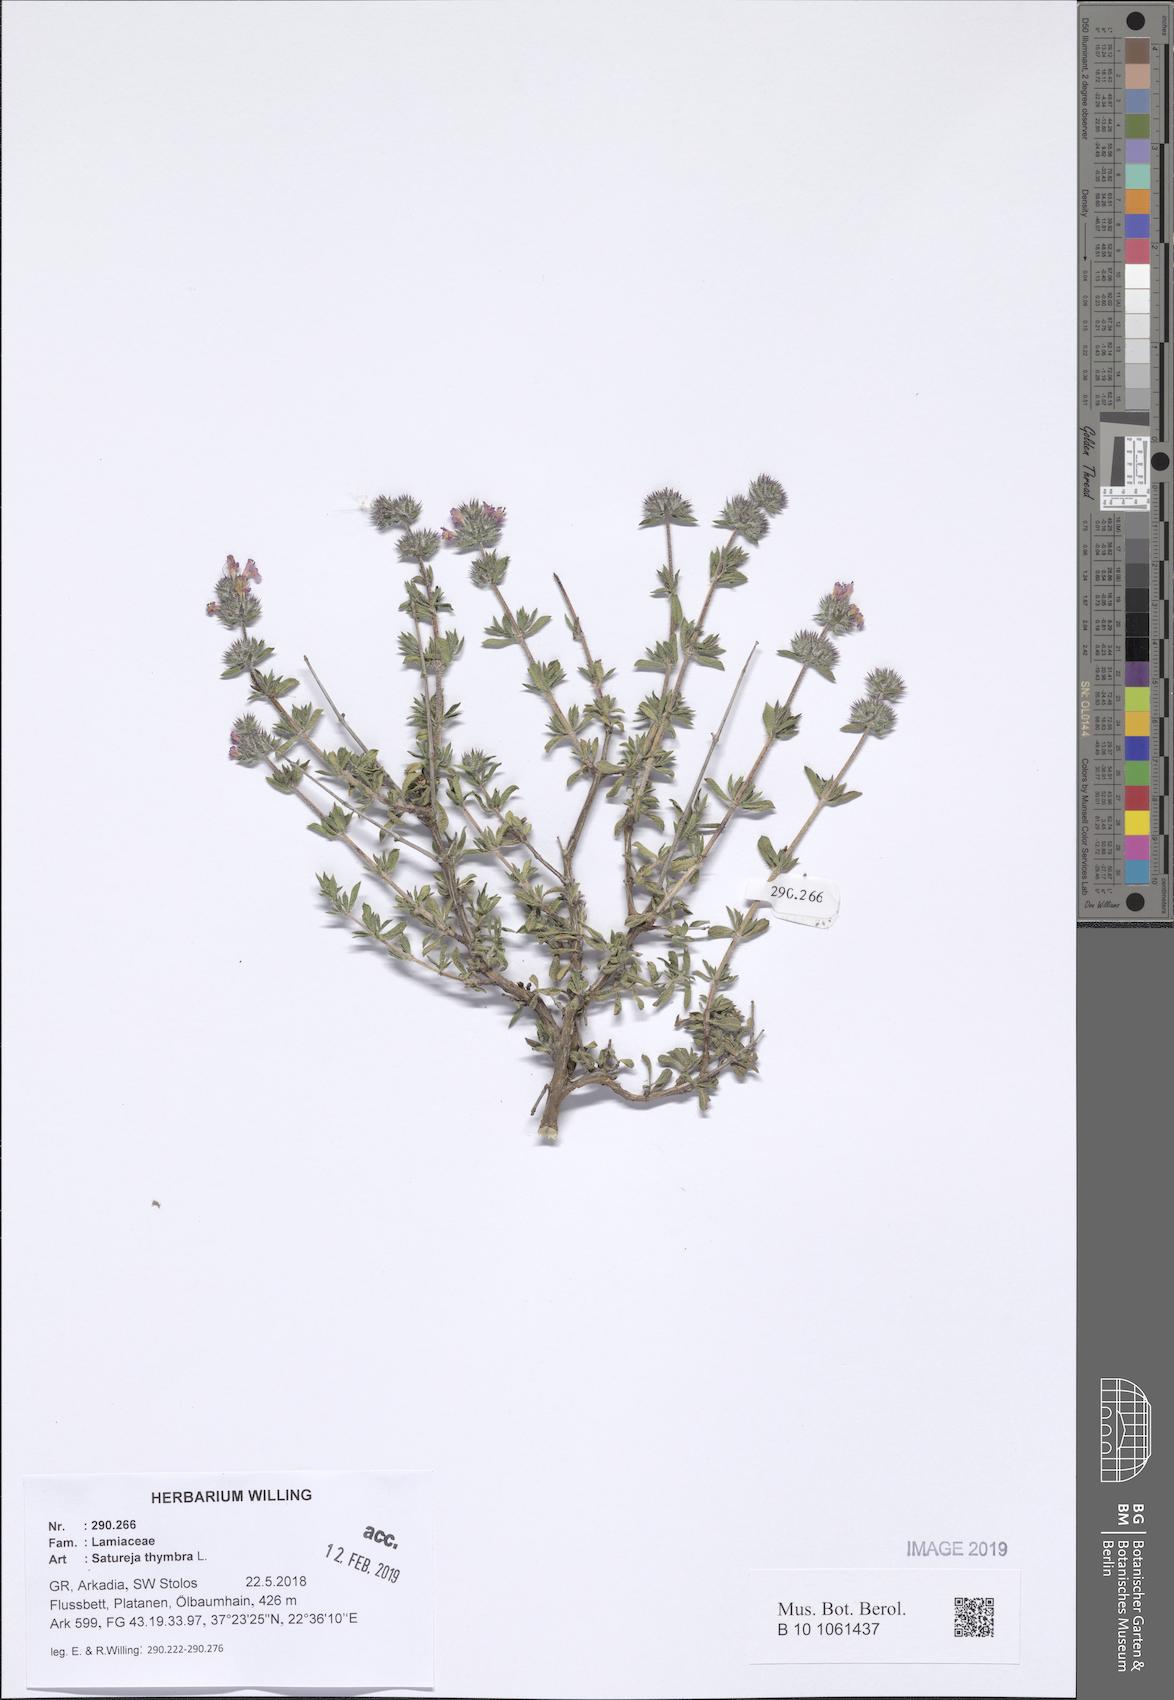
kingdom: Plantae
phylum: Tracheophyta
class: Magnoliopsida
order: Lamiales
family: Lamiaceae
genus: Satureja
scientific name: Satureja thymbra
